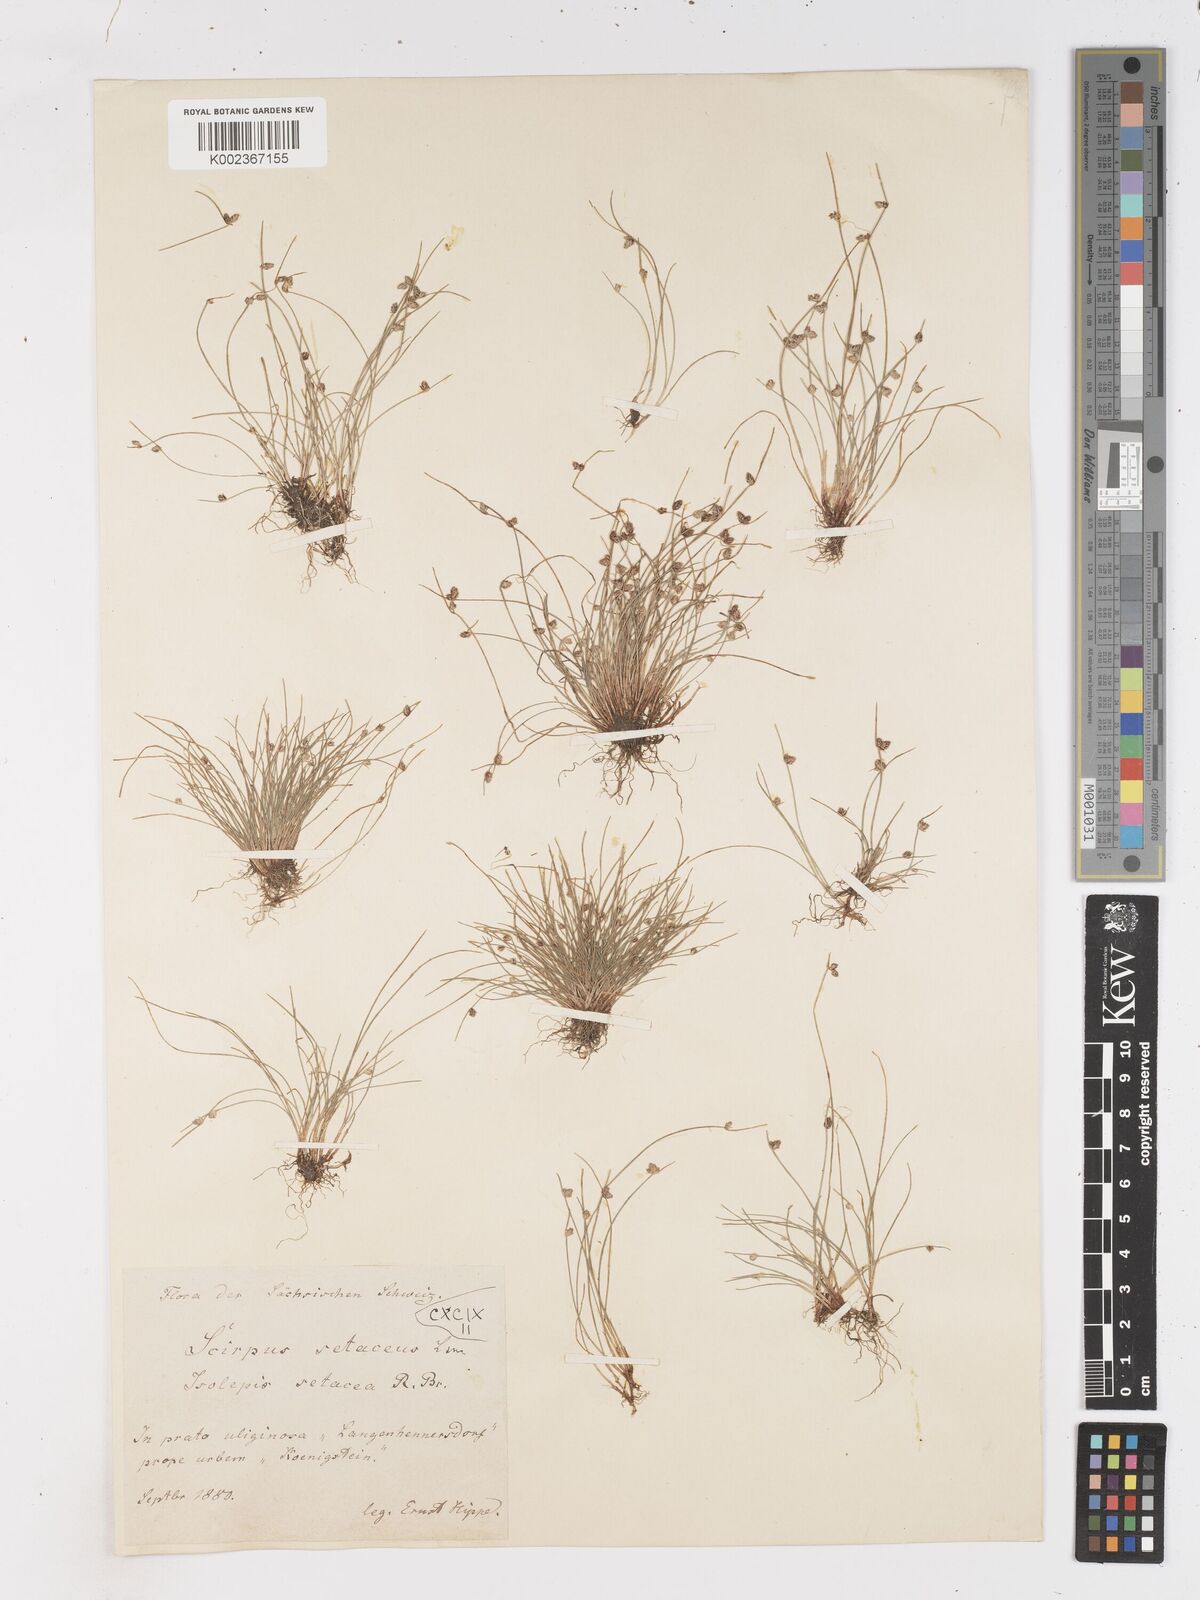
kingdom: Plantae
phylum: Tracheophyta
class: Liliopsida
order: Poales
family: Cyperaceae
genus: Isolepis
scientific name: Isolepis setacea
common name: Bristle club-rush
